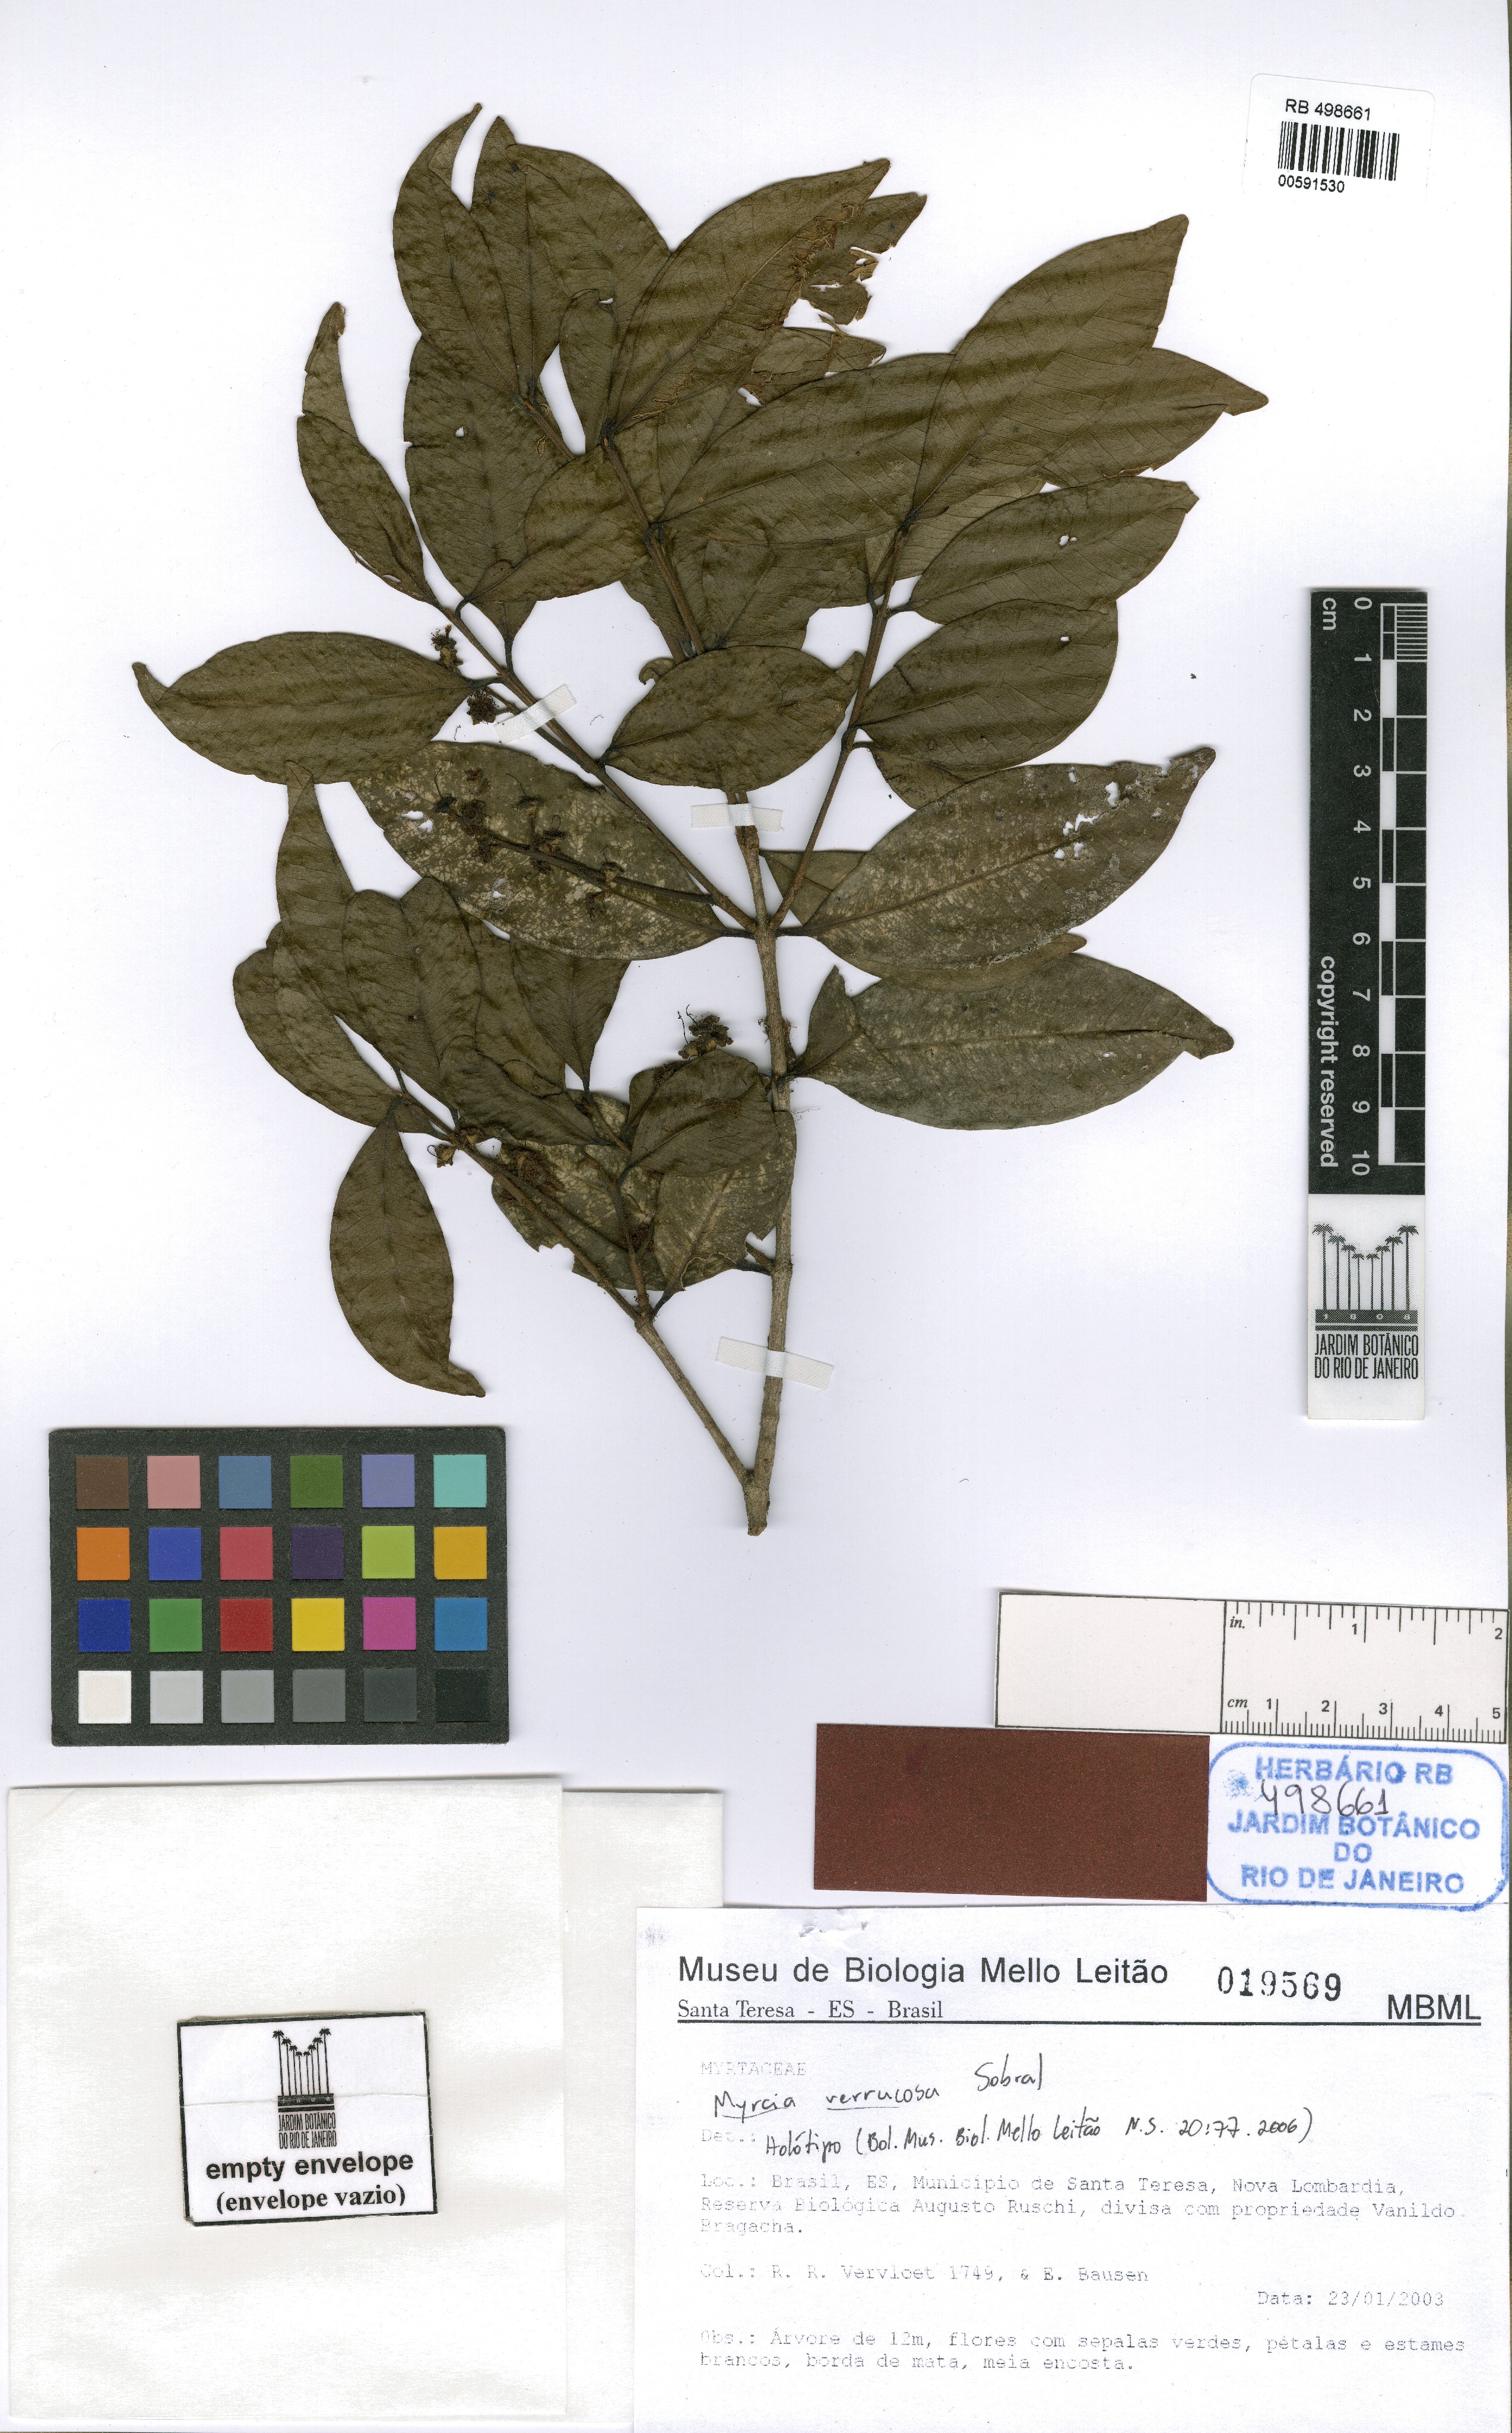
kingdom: Plantae
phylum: Tracheophyta
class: Magnoliopsida
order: Myrtales
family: Myrtaceae
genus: Myrcia
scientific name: Myrcia verrucosa
